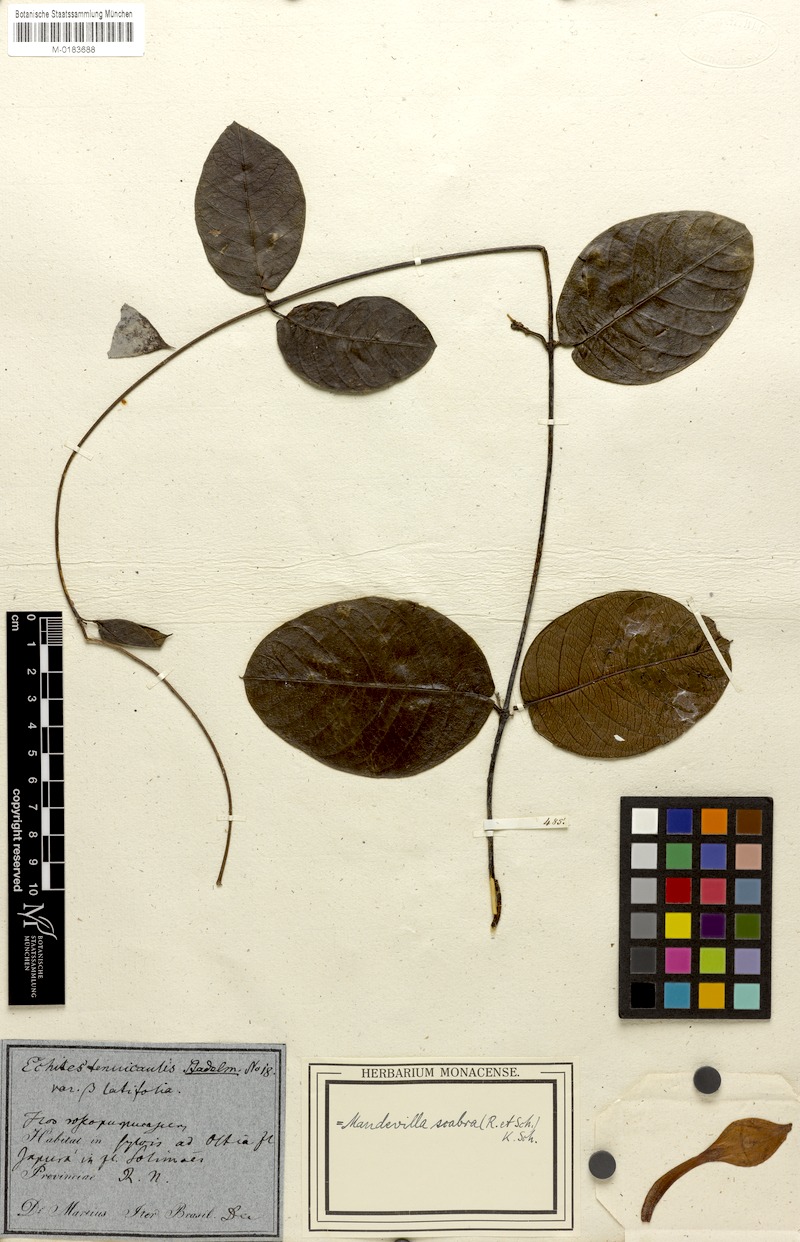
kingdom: Plantae
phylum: Tracheophyta
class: Magnoliopsida
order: Gentianales
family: Apocynaceae
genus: Mandevilla
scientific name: Mandevilla scabra
